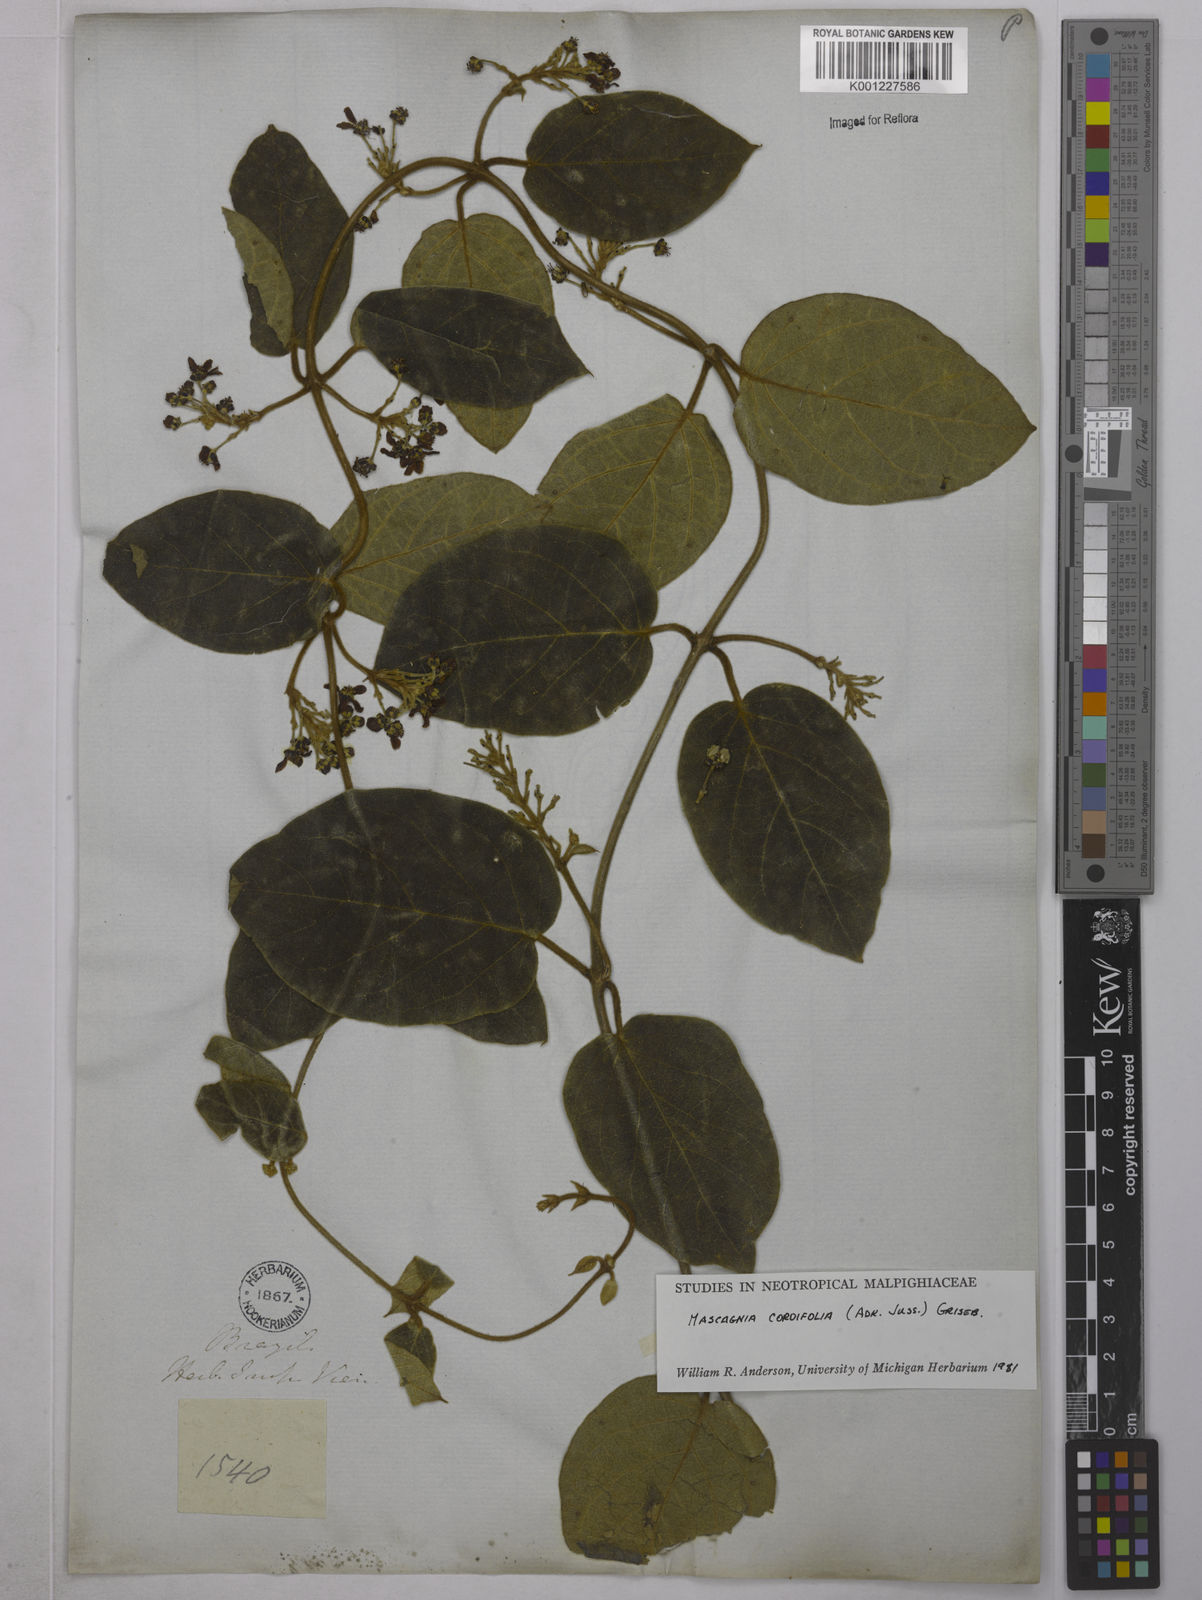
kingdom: Plantae
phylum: Tracheophyta
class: Magnoliopsida
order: Malpighiales
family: Malpighiaceae
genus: Mascagnia
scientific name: Mascagnia cordifolia
